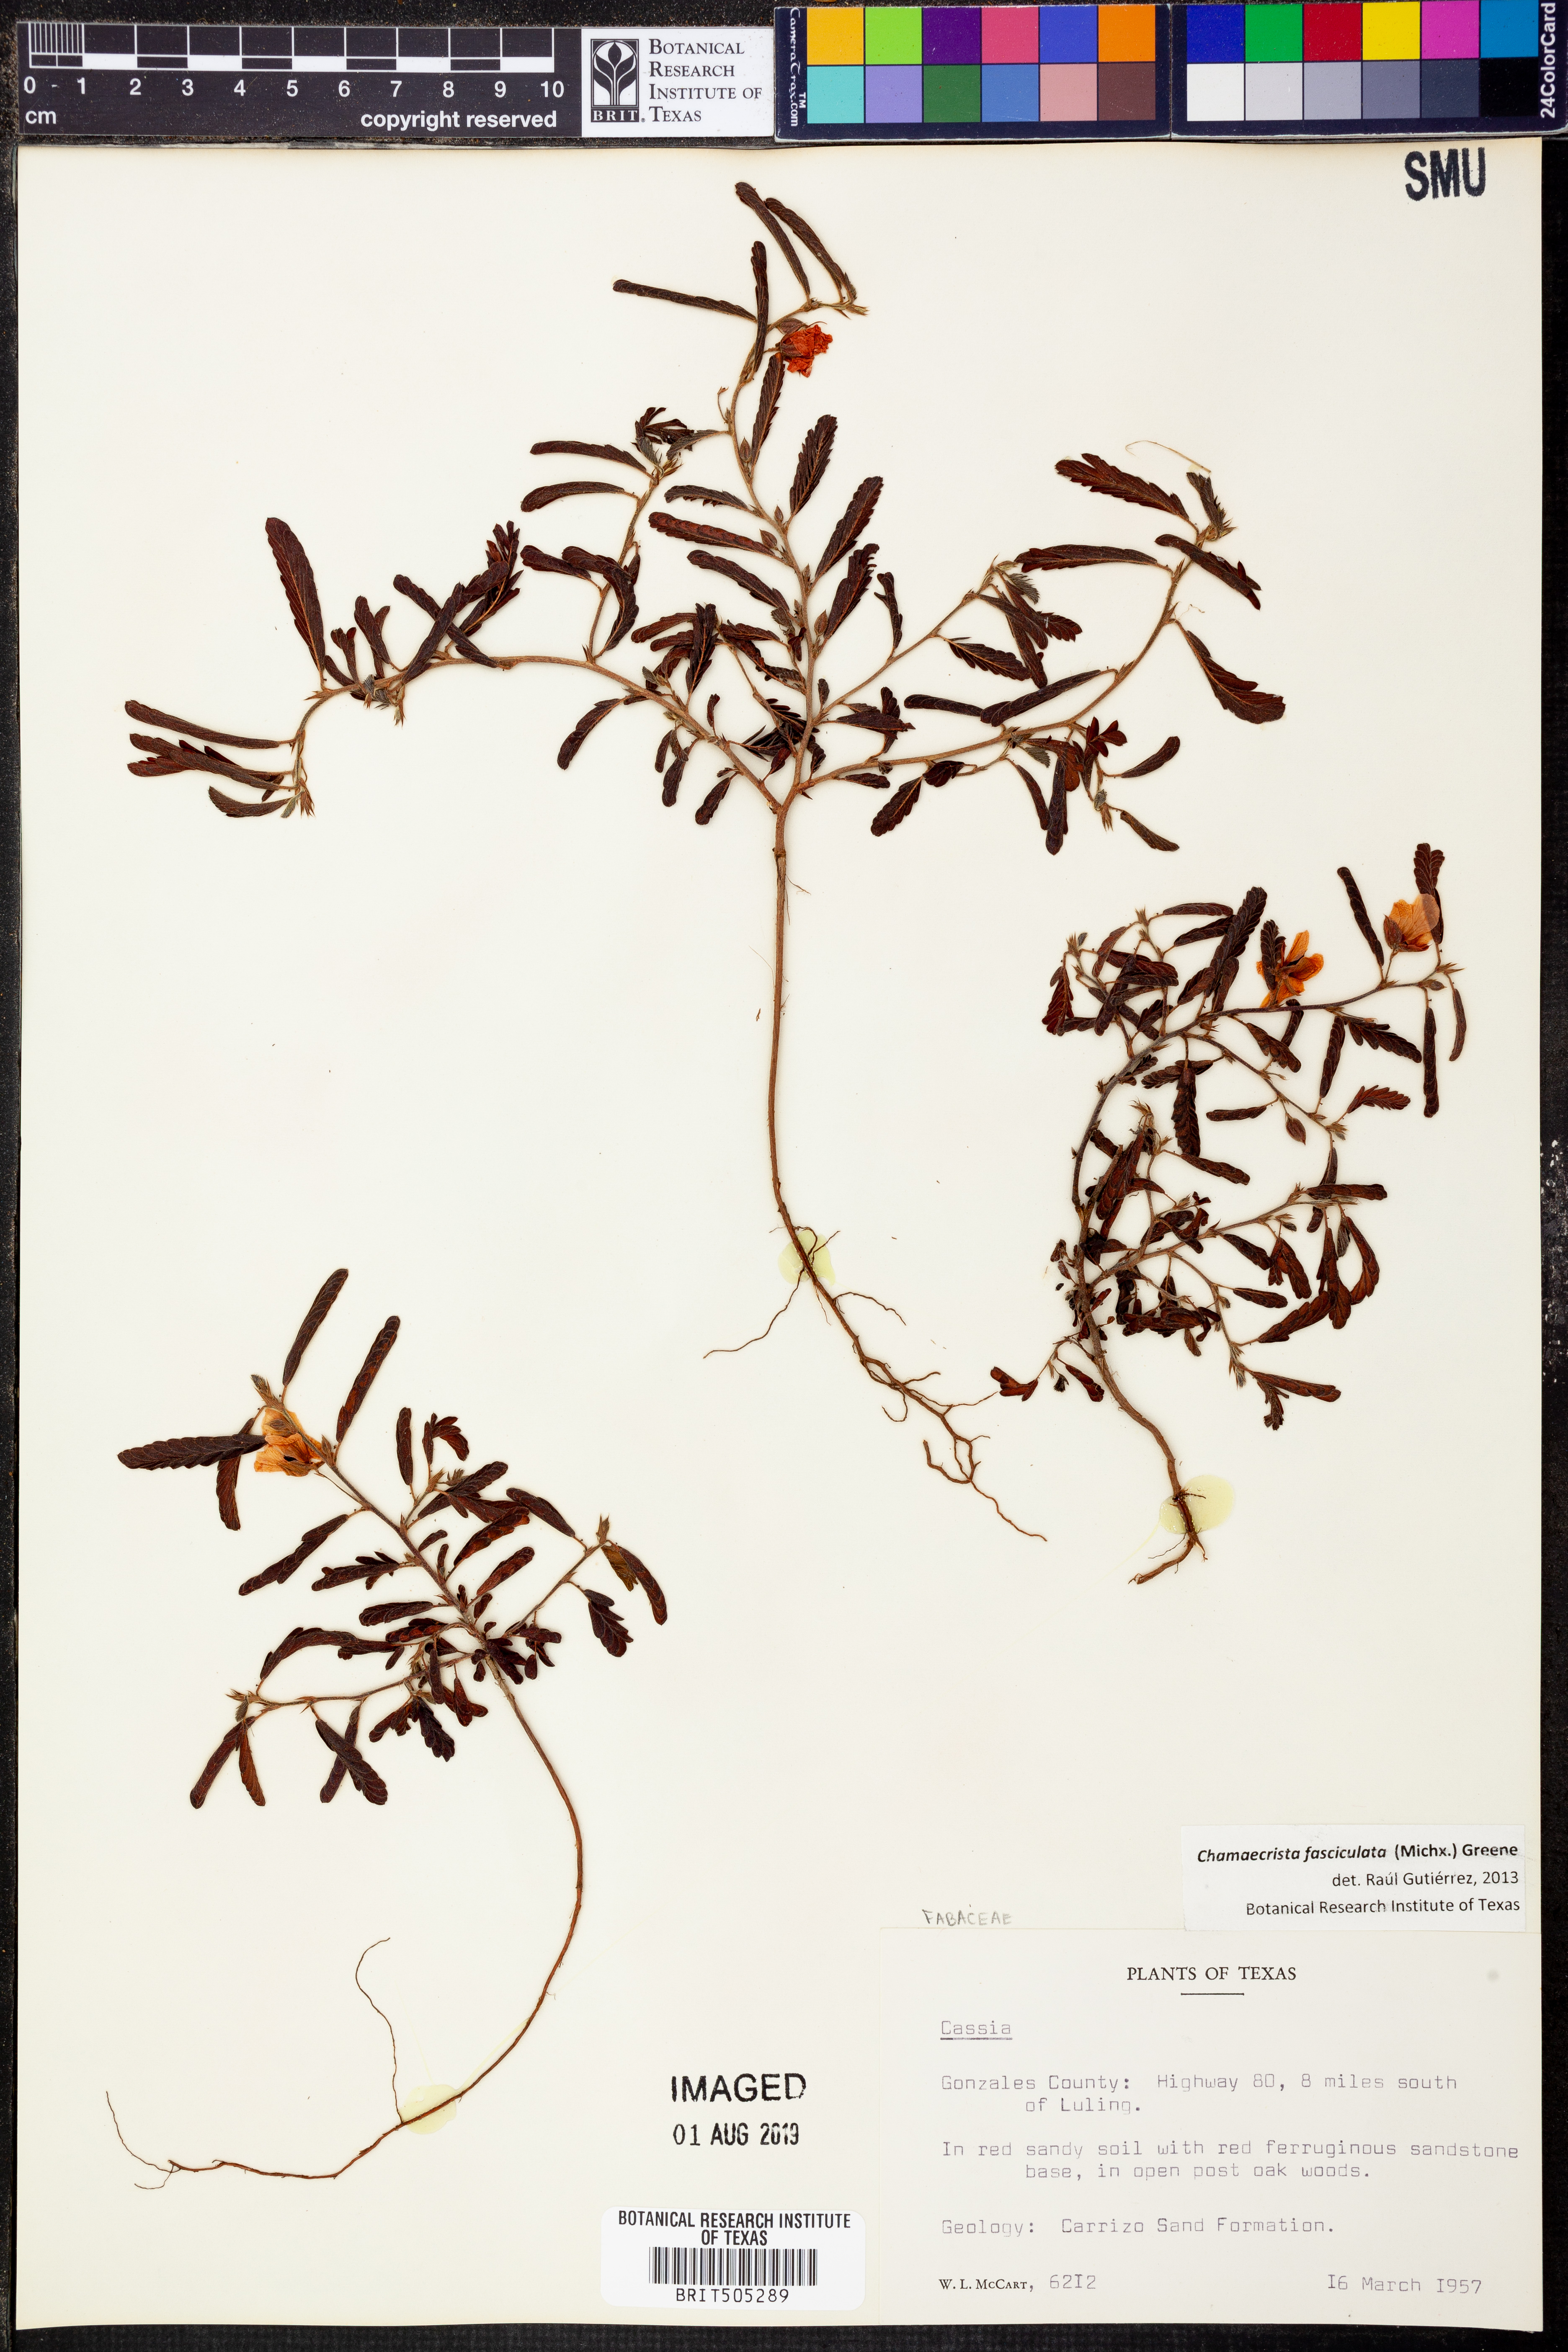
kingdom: Plantae
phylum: Tracheophyta
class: Magnoliopsida
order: Fabales
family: Fabaceae
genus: Chamaecrista
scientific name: Chamaecrista fasciculata
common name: Golden cassia
